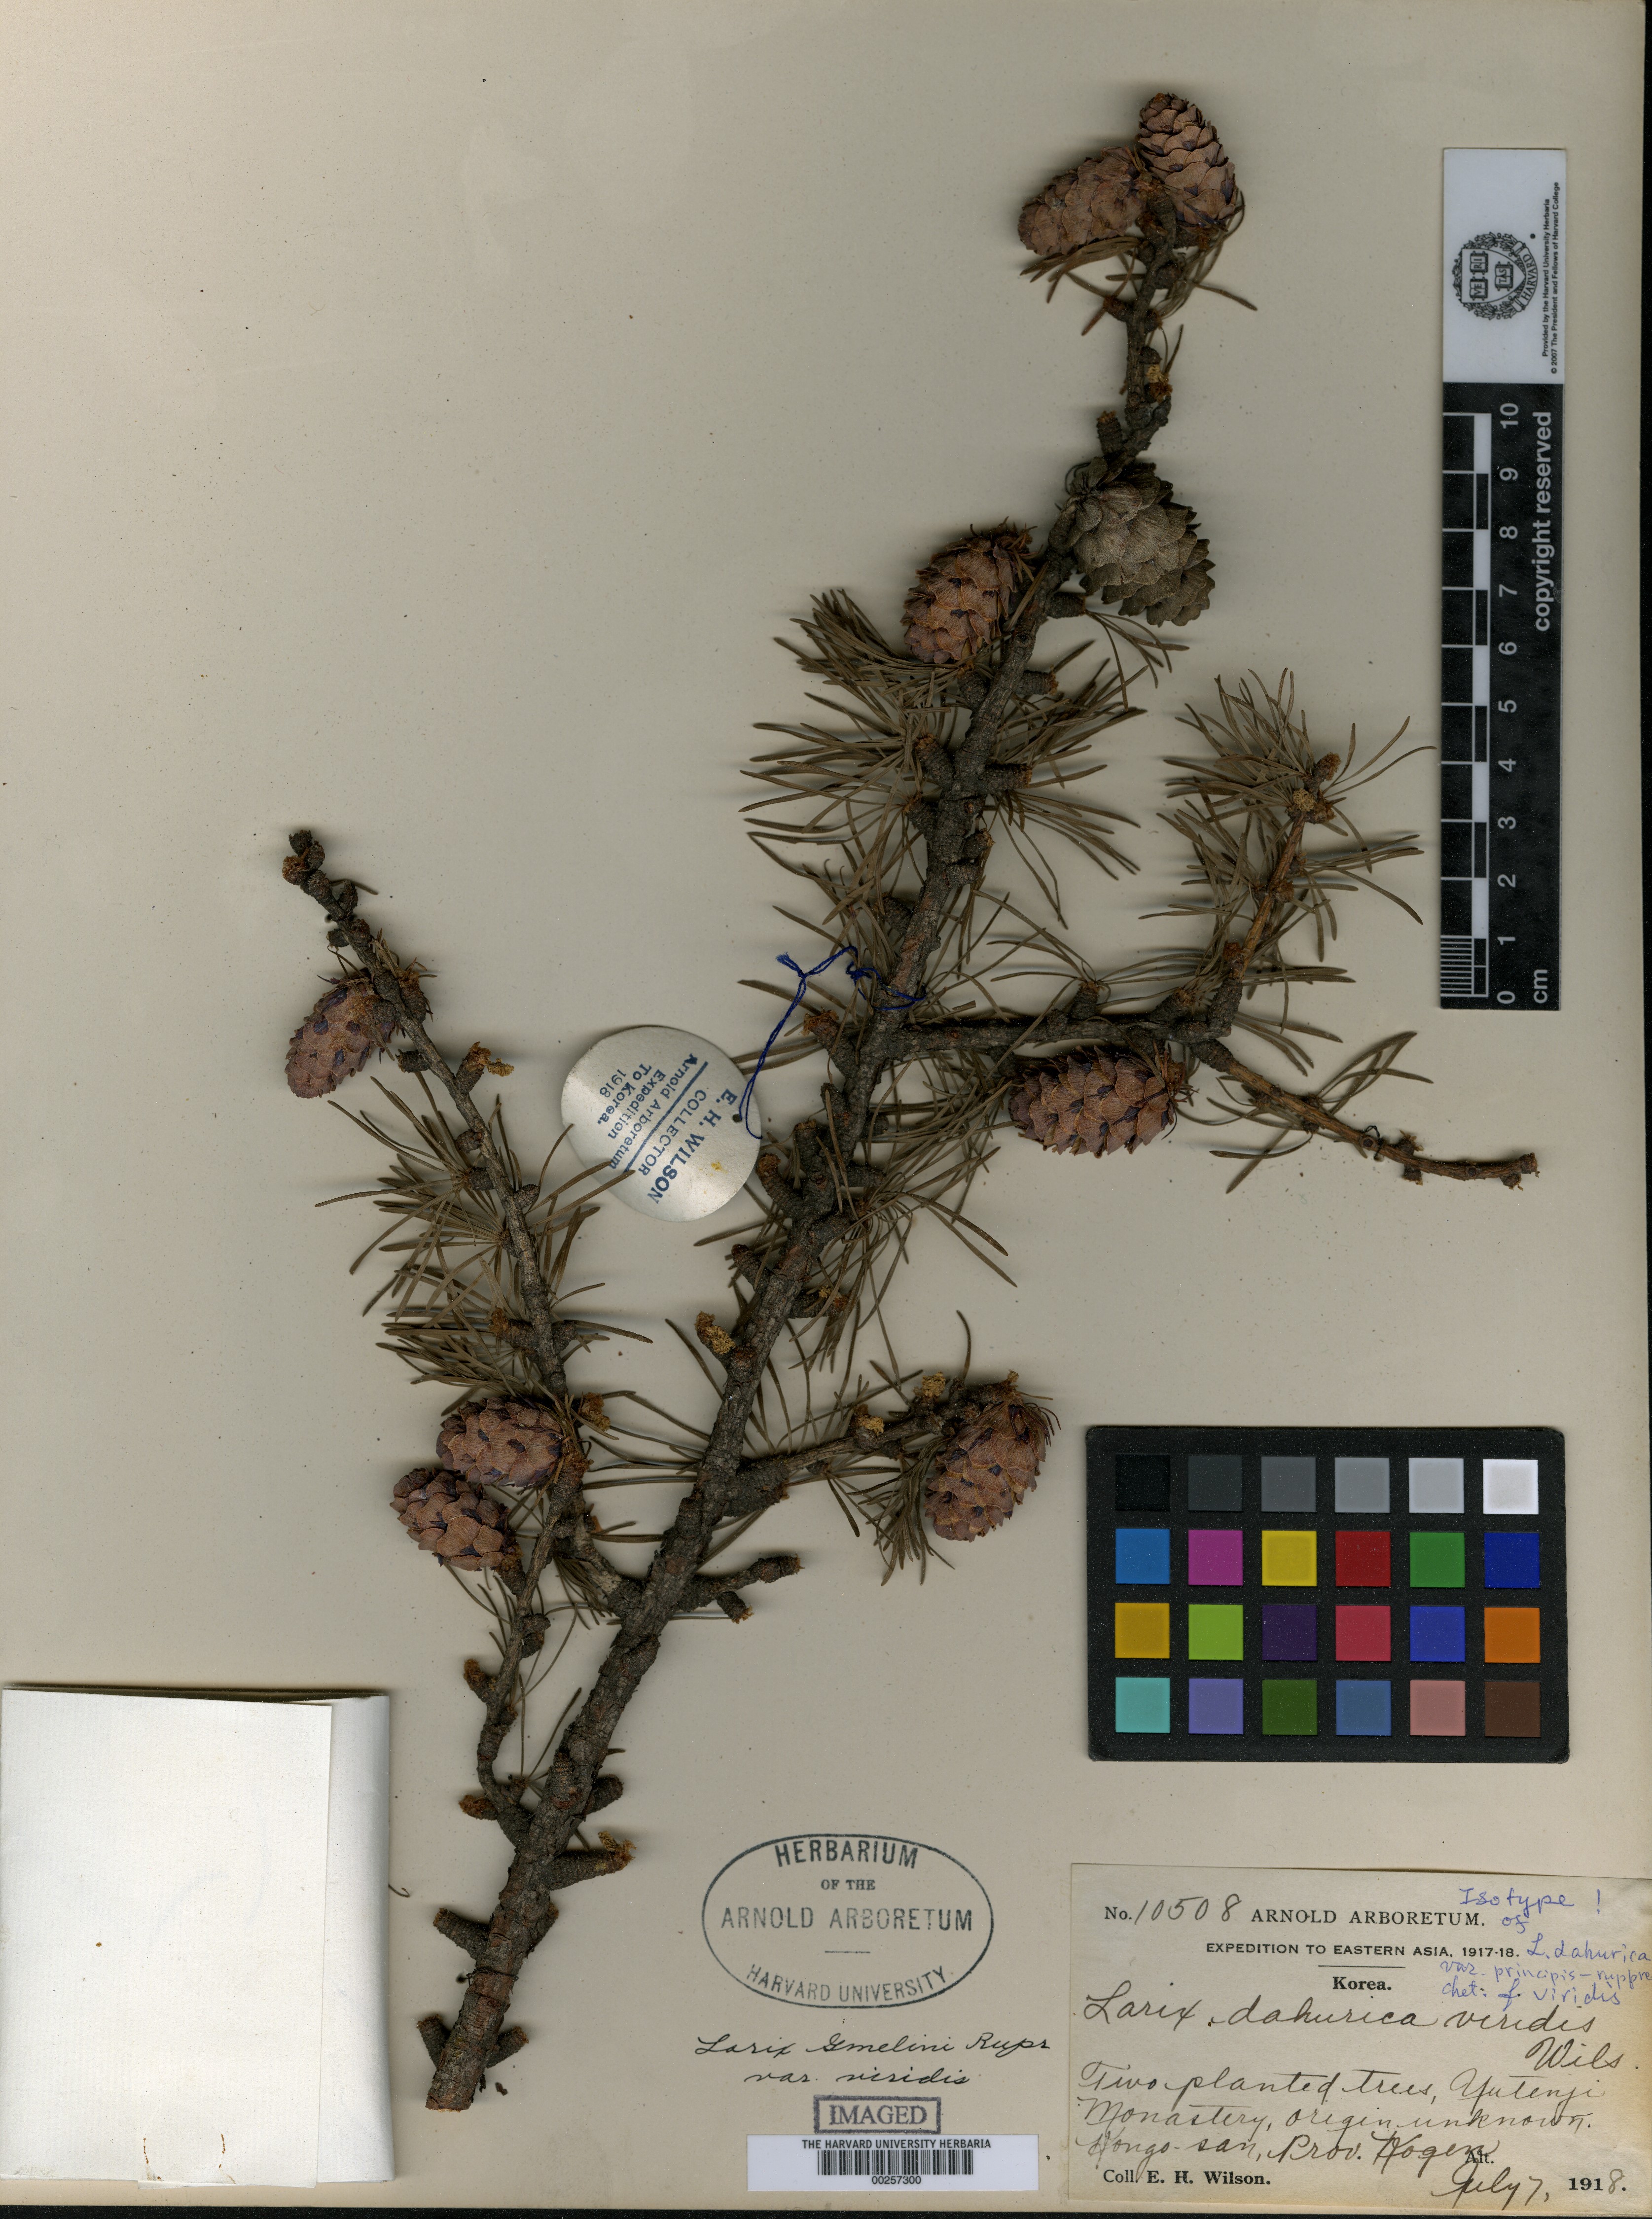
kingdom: Plantae
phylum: Tracheophyta
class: Pinopsida
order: Pinales
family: Pinaceae
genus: Larix
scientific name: Larix gmelinii
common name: Dahurian larch
